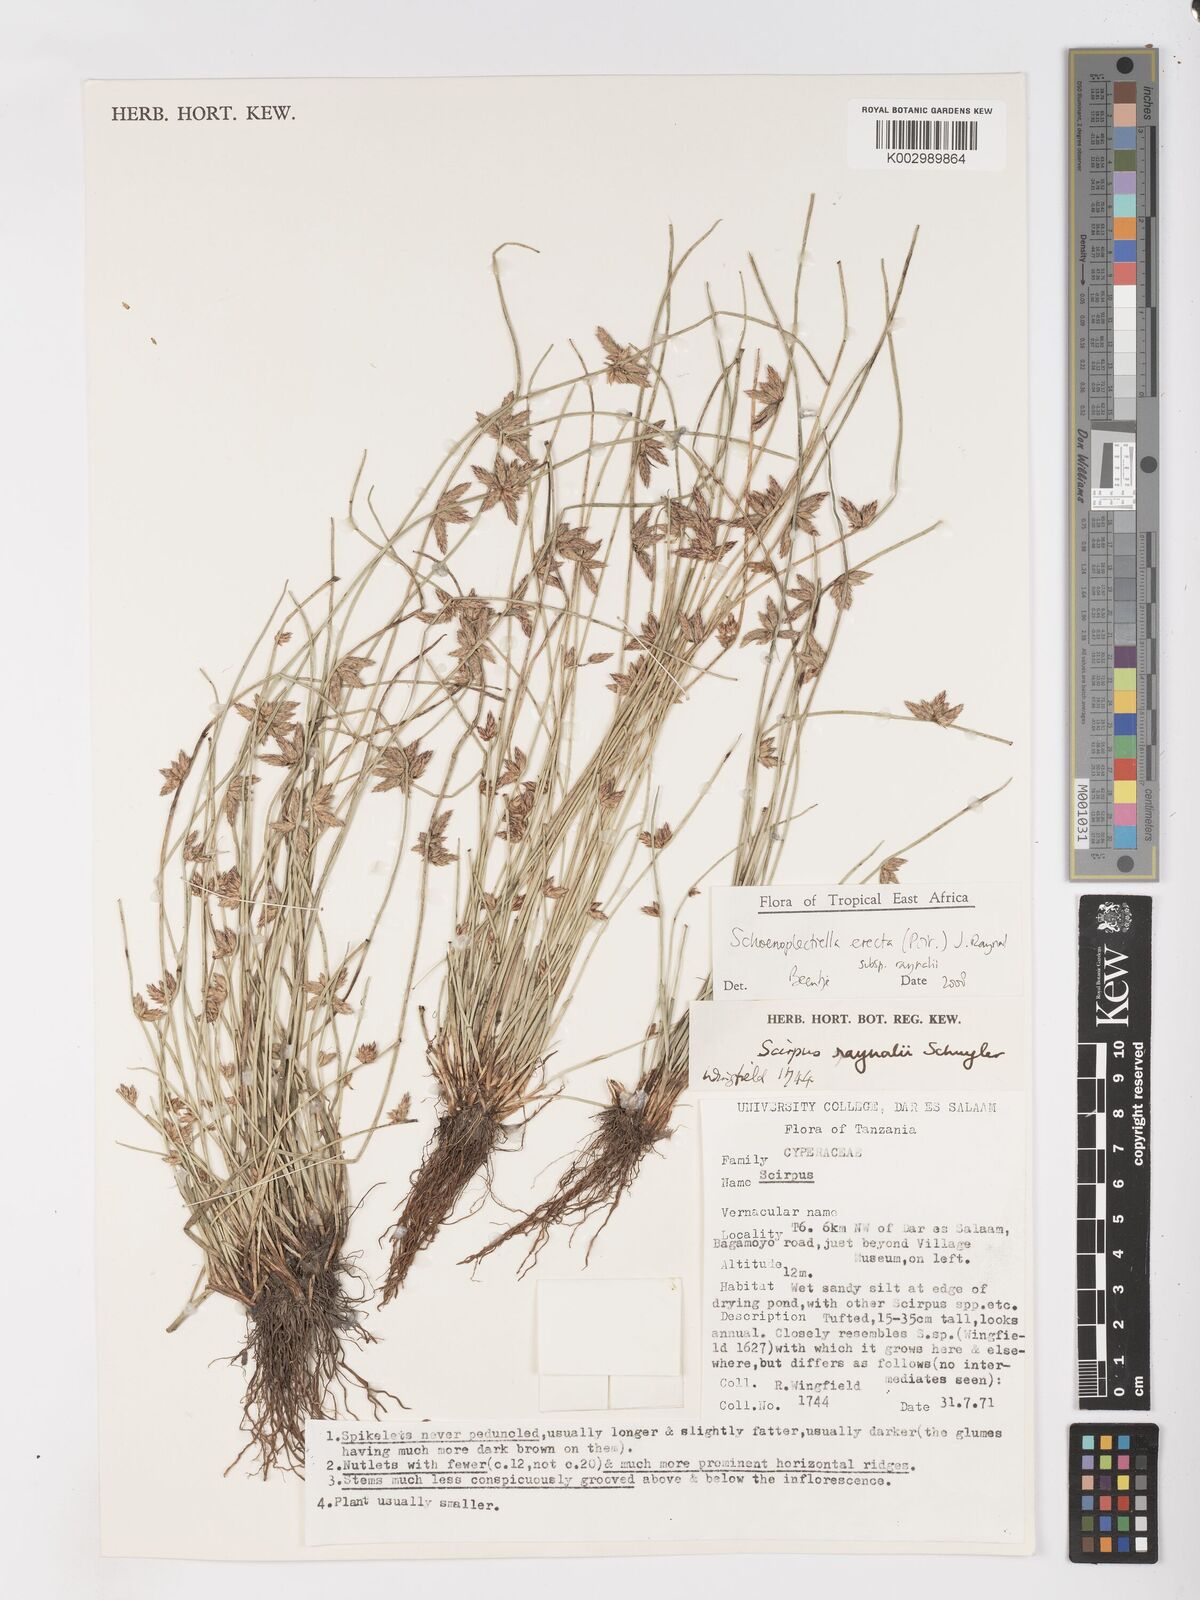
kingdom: Plantae
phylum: Tracheophyta
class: Liliopsida
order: Poales
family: Cyperaceae
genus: Schoenoplectiella
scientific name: Schoenoplectiella erecta
